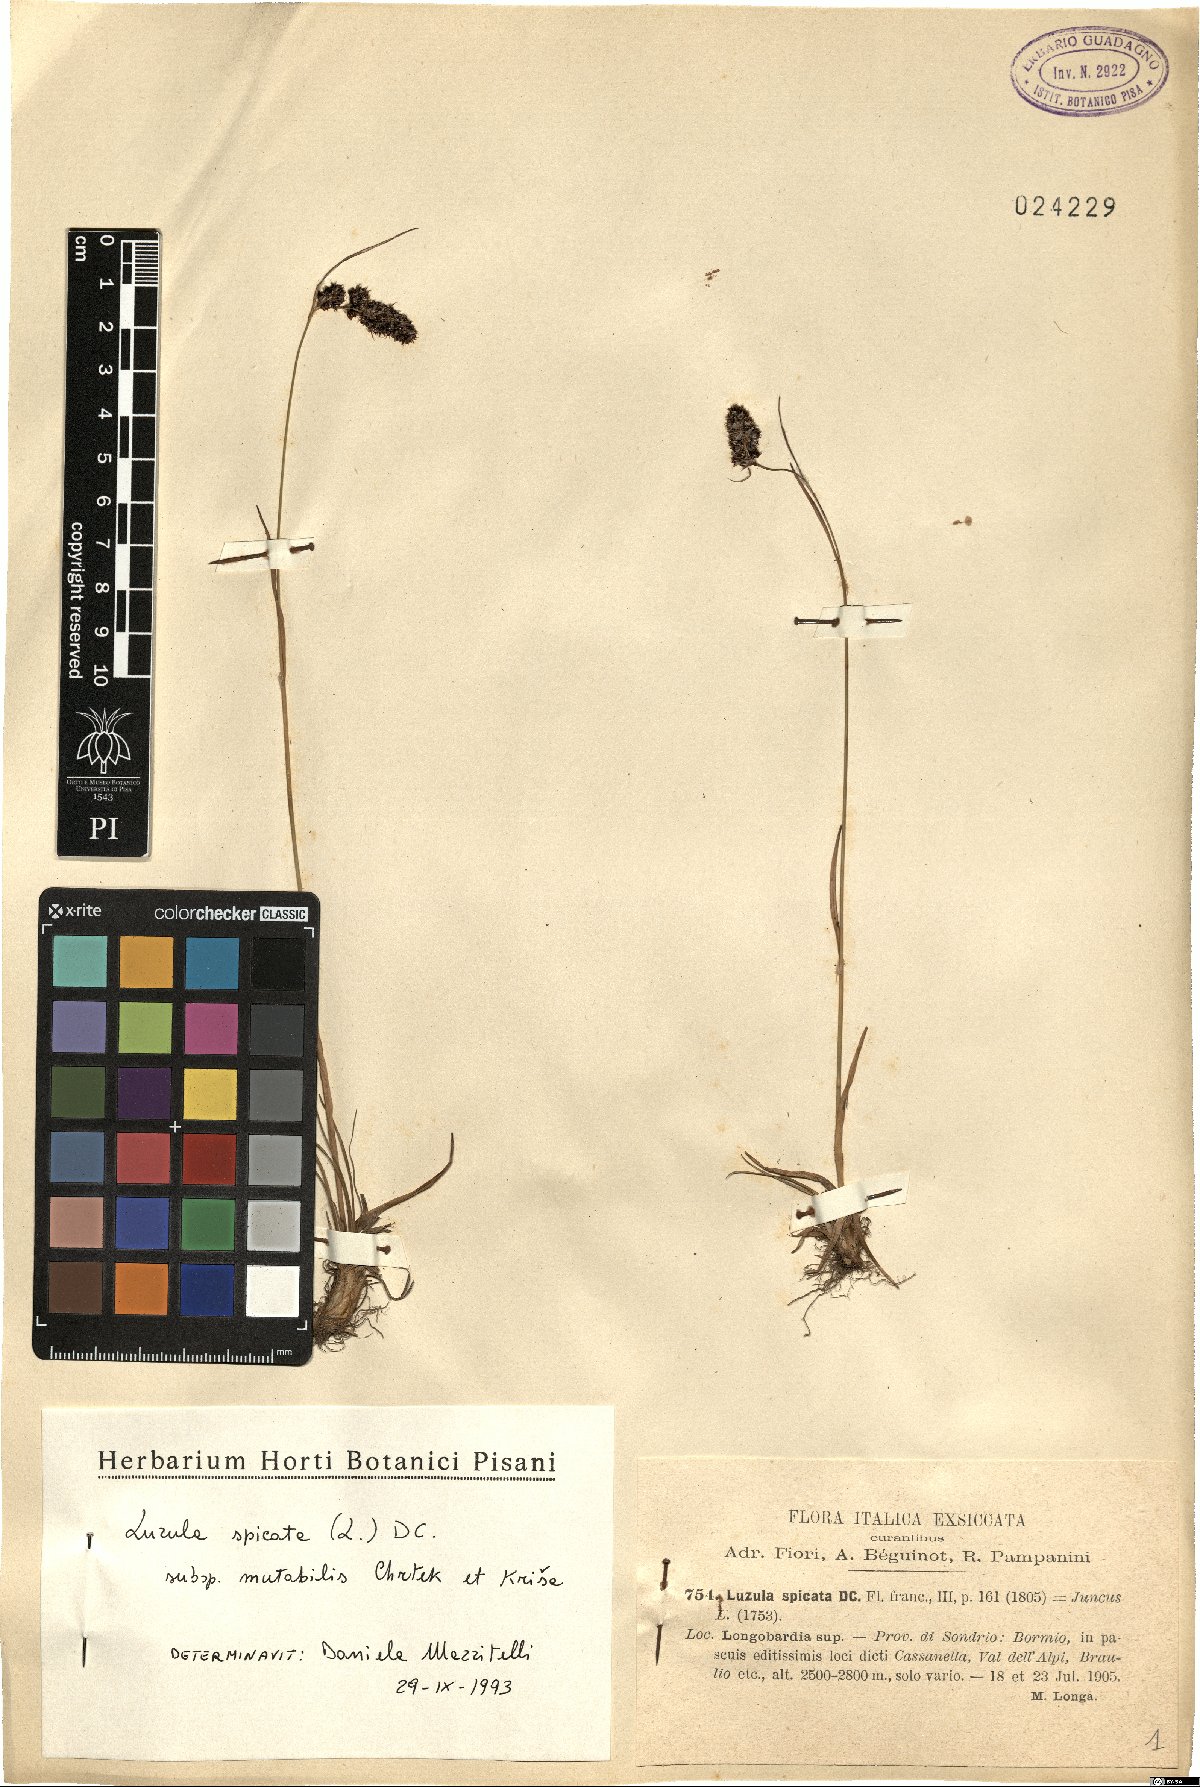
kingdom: Plantae
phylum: Tracheophyta
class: Liliopsida
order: Poales
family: Juncaceae
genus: Luzula
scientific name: Luzula spicata
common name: Spiked wood-rush
